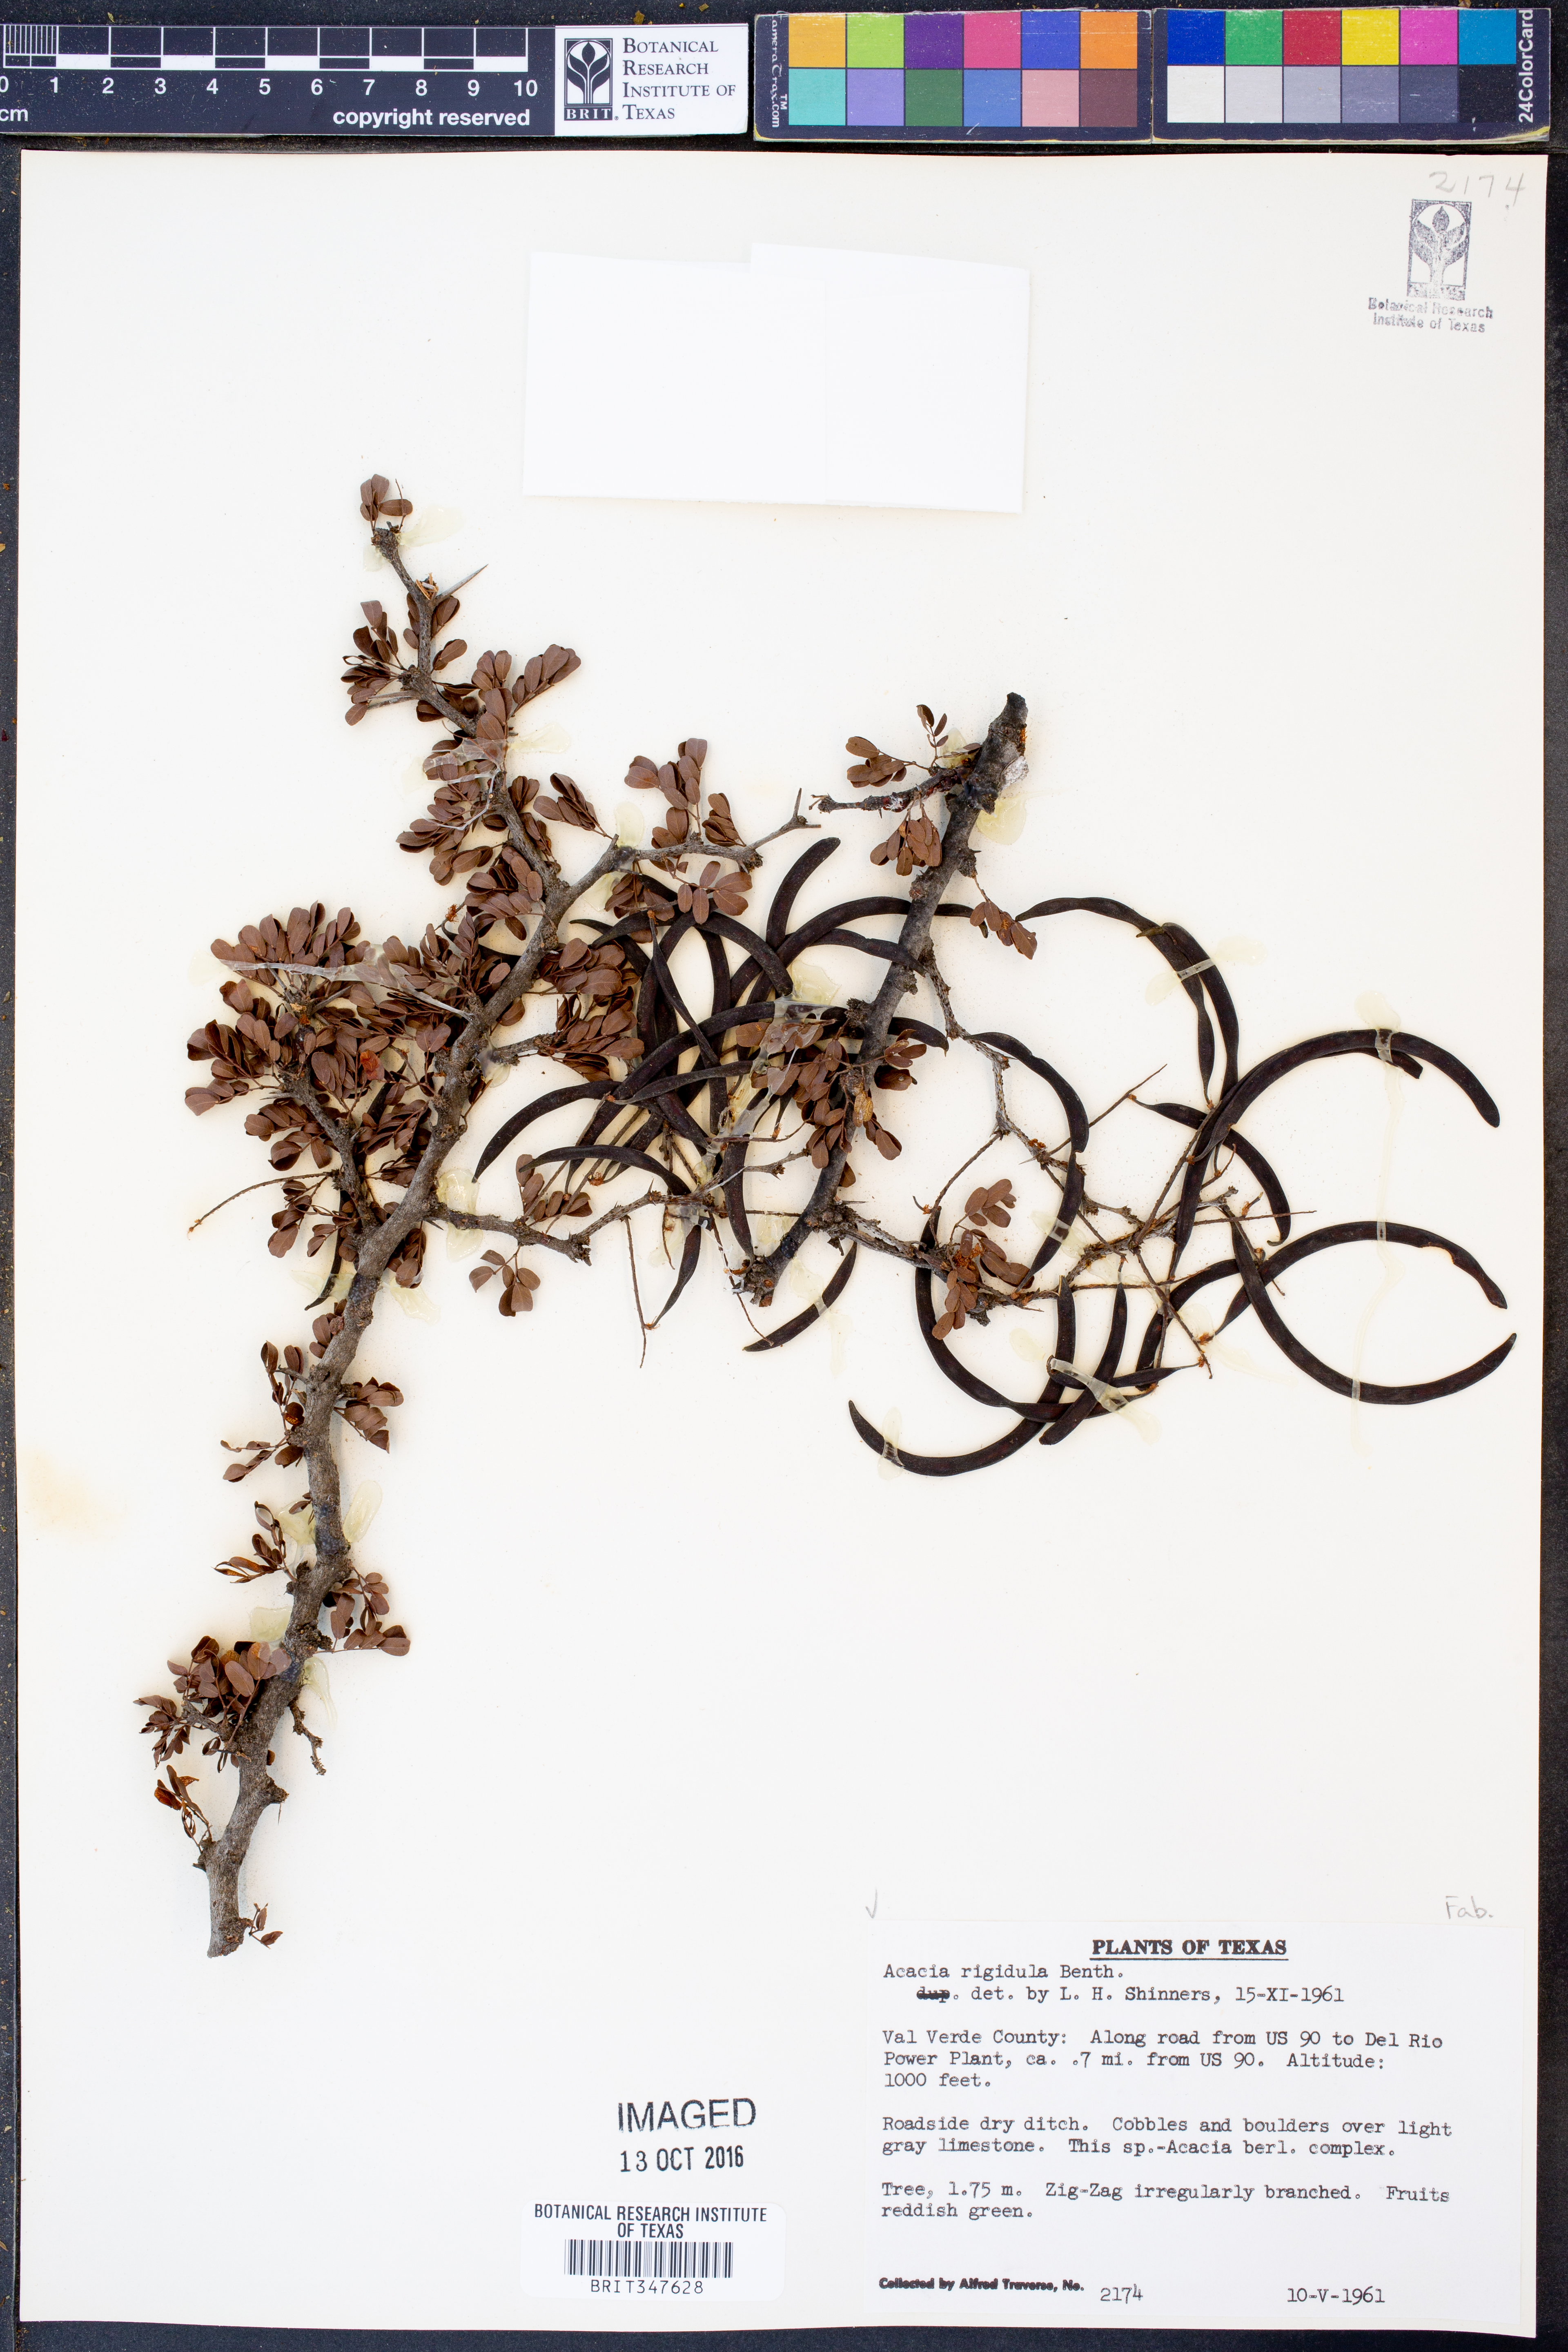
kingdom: Plantae
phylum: Tracheophyta
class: Magnoliopsida
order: Fabales
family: Fabaceae
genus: Vachellia
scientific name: Vachellia rigidula
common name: Blackbrush
